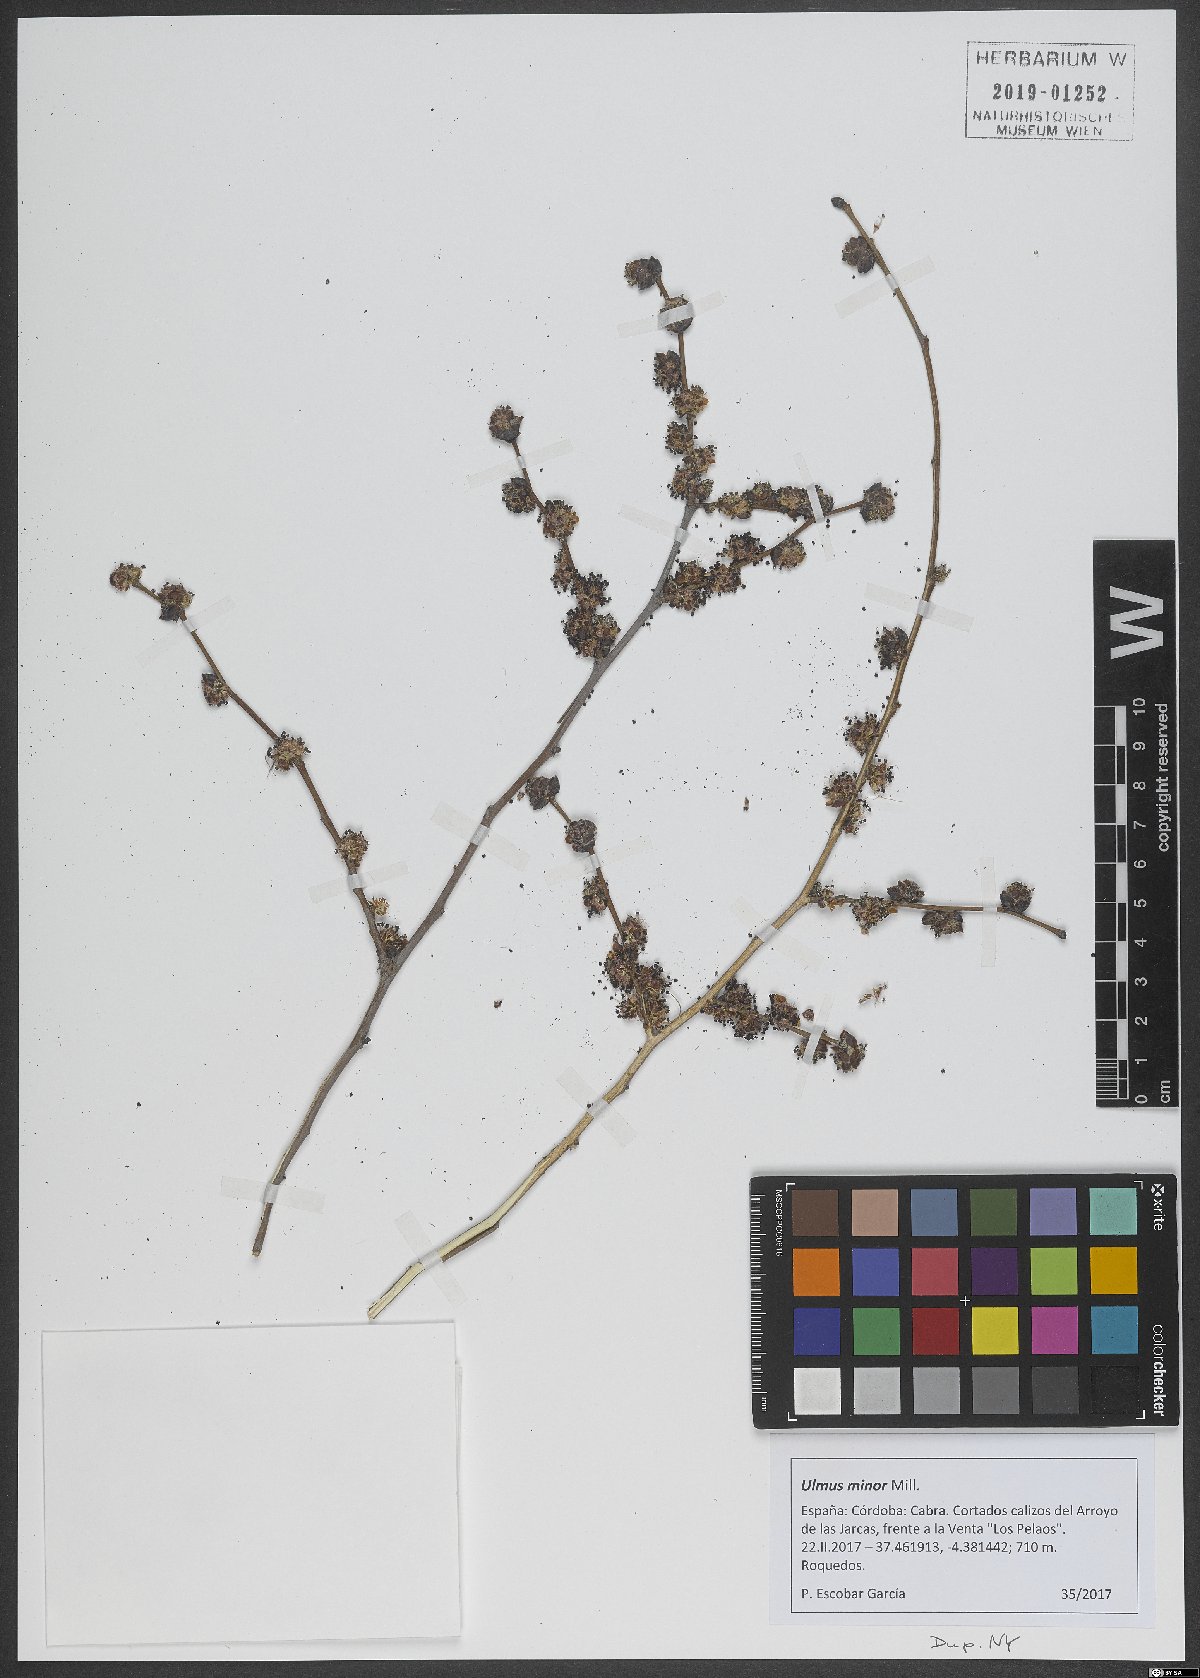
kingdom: Plantae
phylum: Tracheophyta
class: Magnoliopsida
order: Rosales
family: Ulmaceae
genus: Ulmus
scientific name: Ulmus minor
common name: Small-leaved elm
